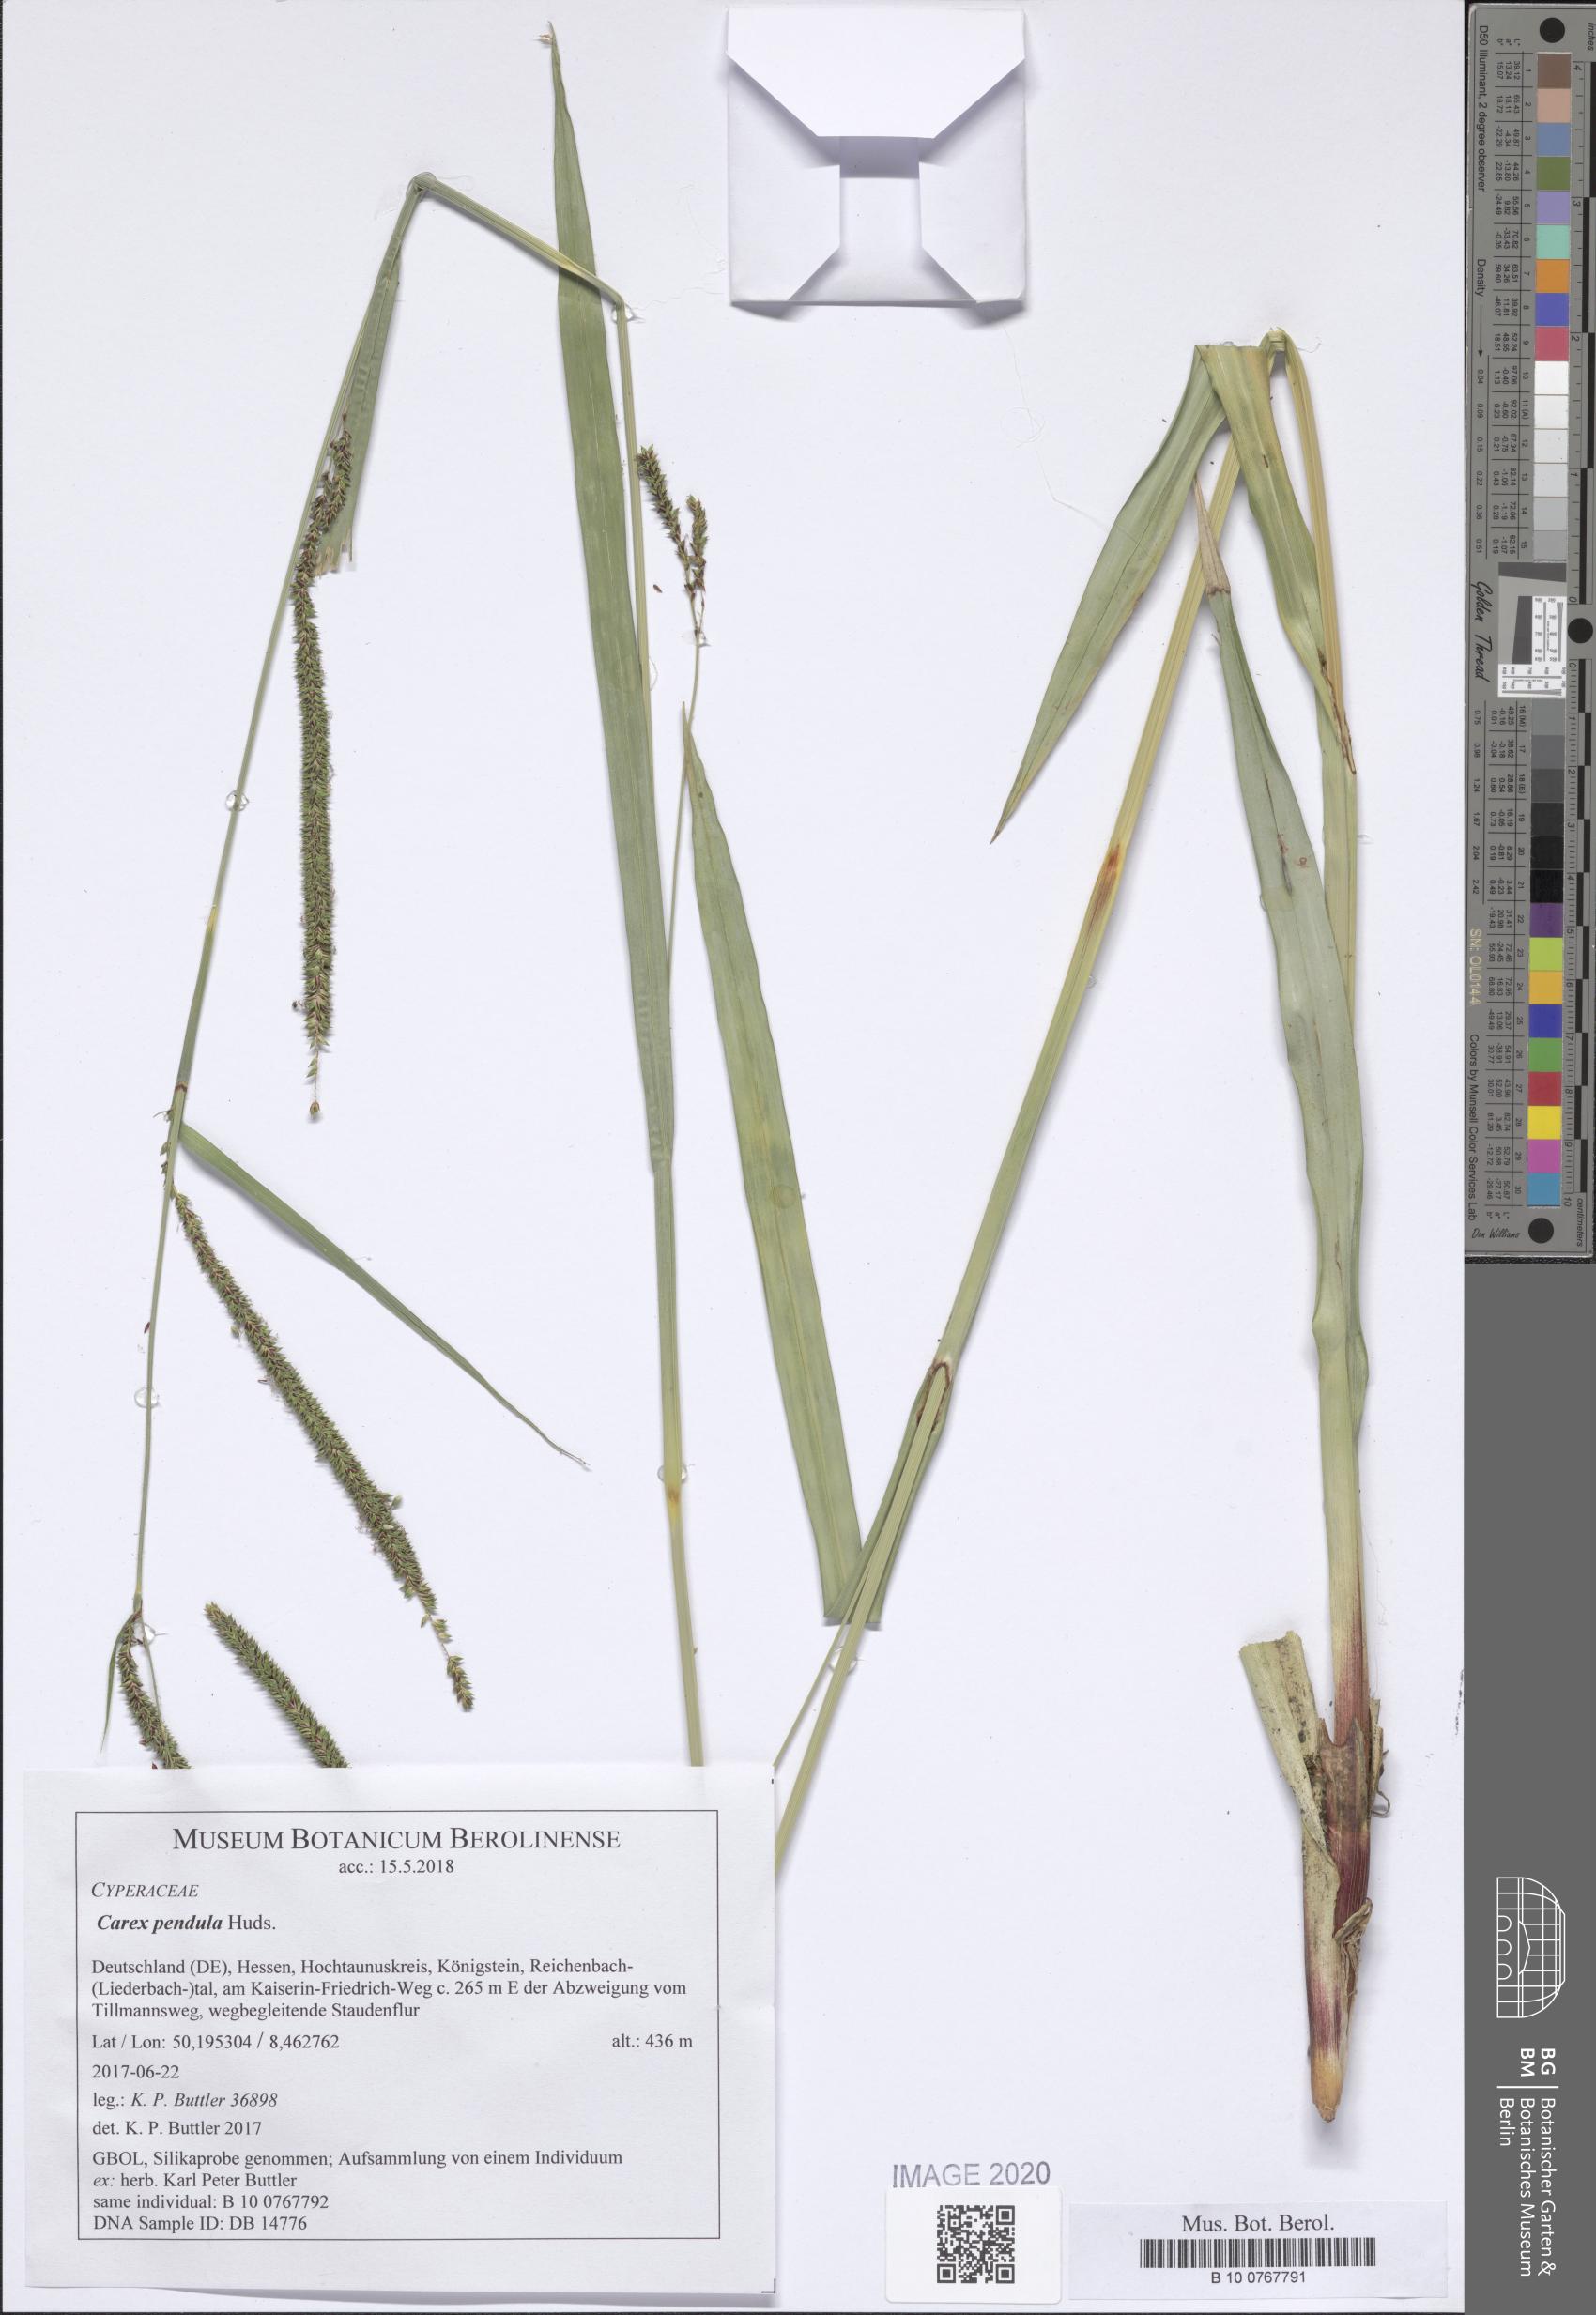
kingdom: Plantae
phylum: Tracheophyta
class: Liliopsida
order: Poales
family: Cyperaceae
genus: Carex
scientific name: Carex pendula
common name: Pendulous sedge
